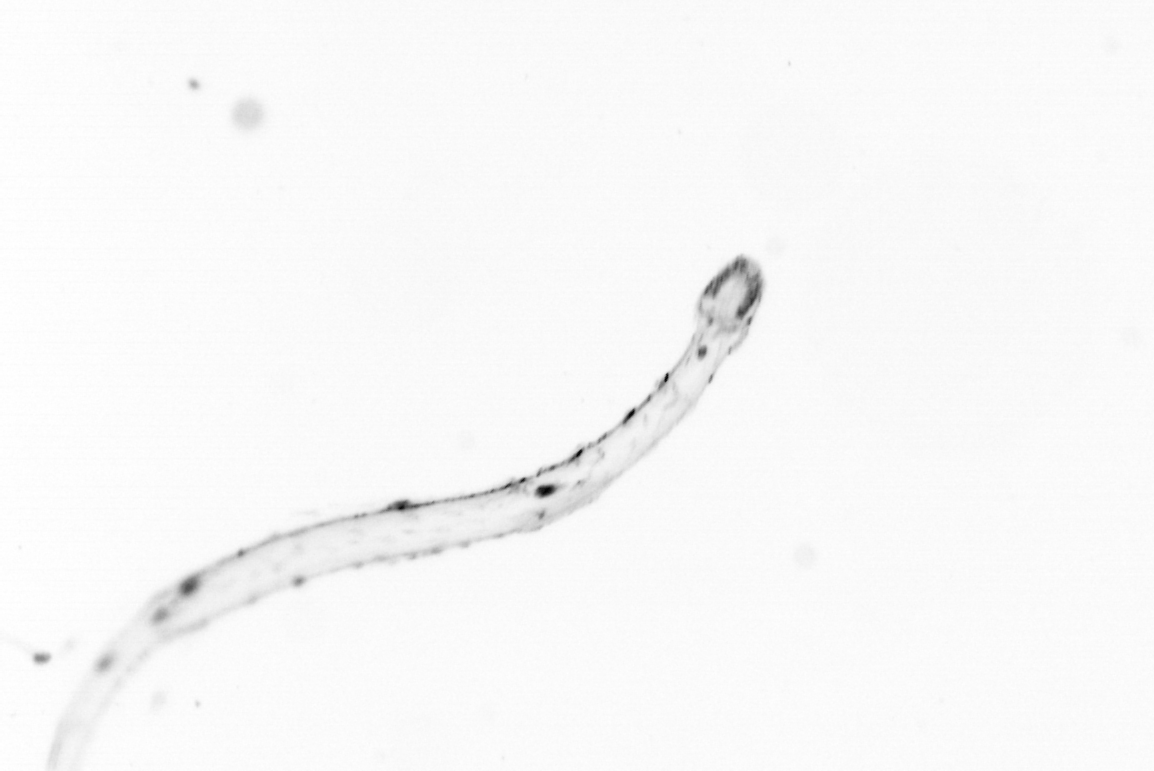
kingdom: Animalia
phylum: Chaetognatha
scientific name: Chaetognatha
